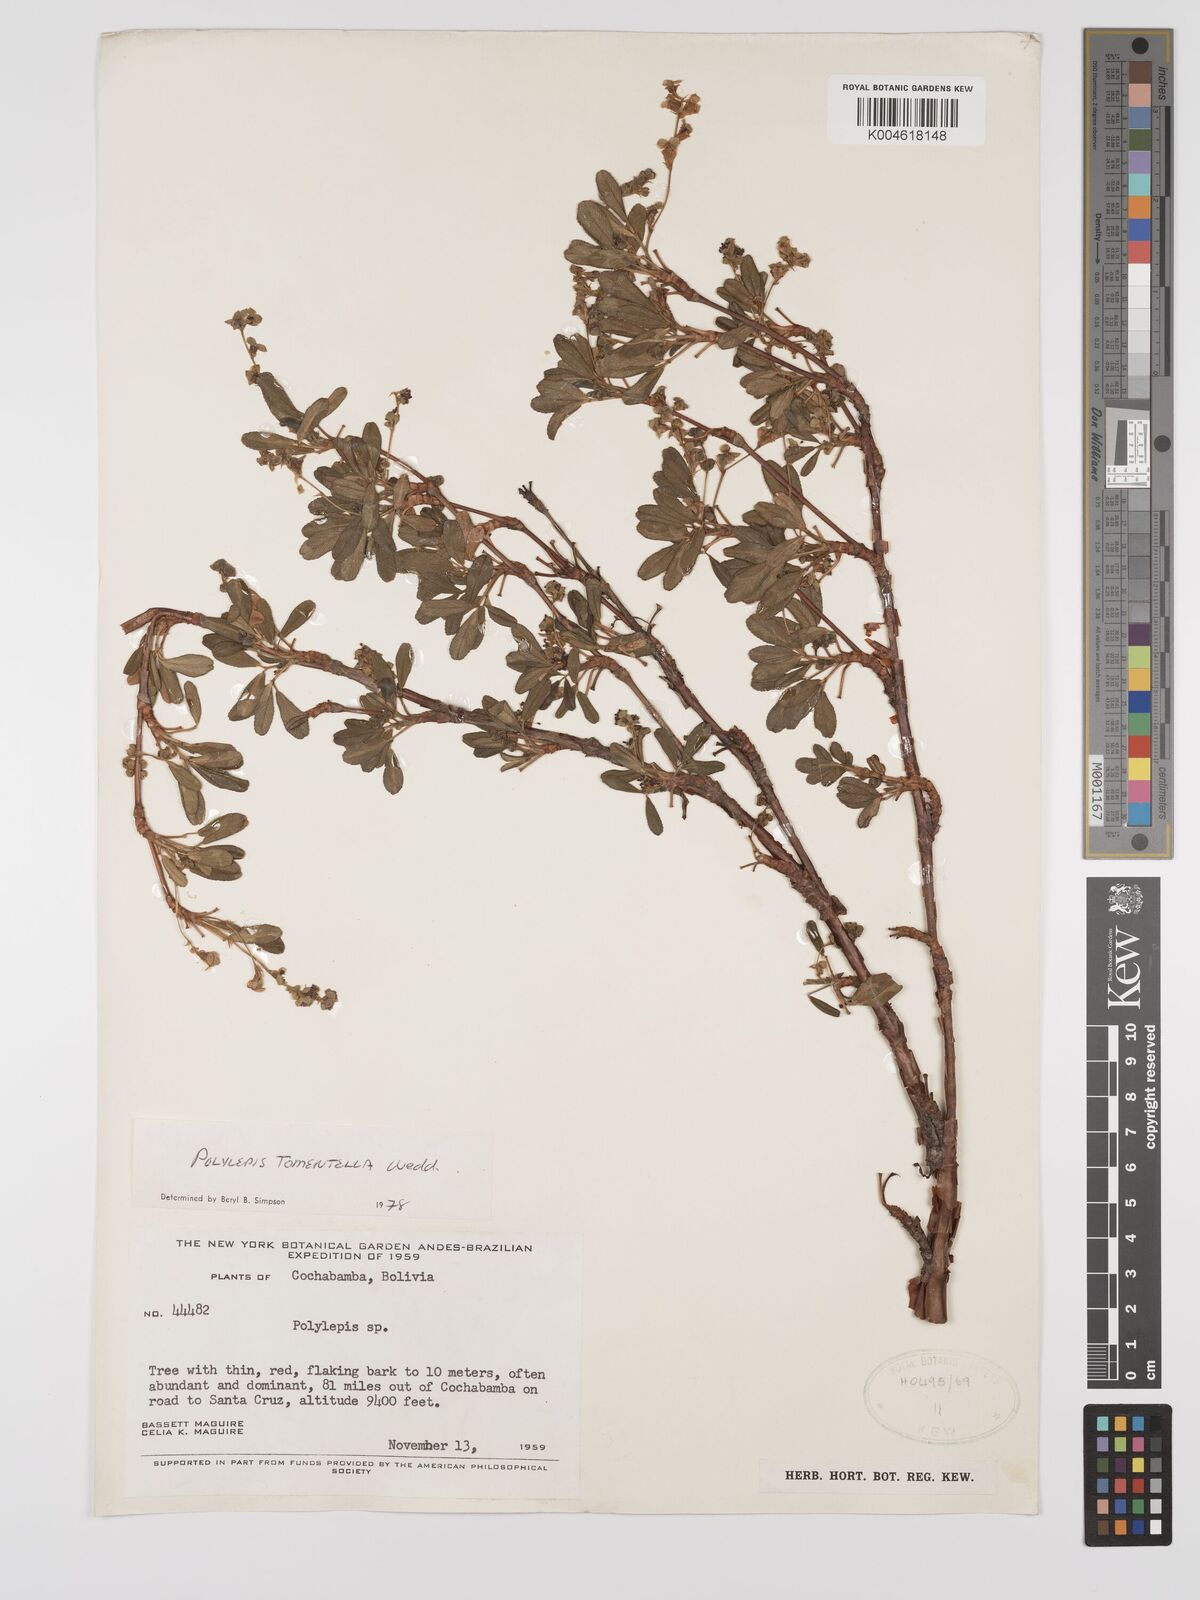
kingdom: Plantae
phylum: Tracheophyta
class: Magnoliopsida
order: Rosales
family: Rosaceae
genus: Polylepis
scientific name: Polylepis tomentella
